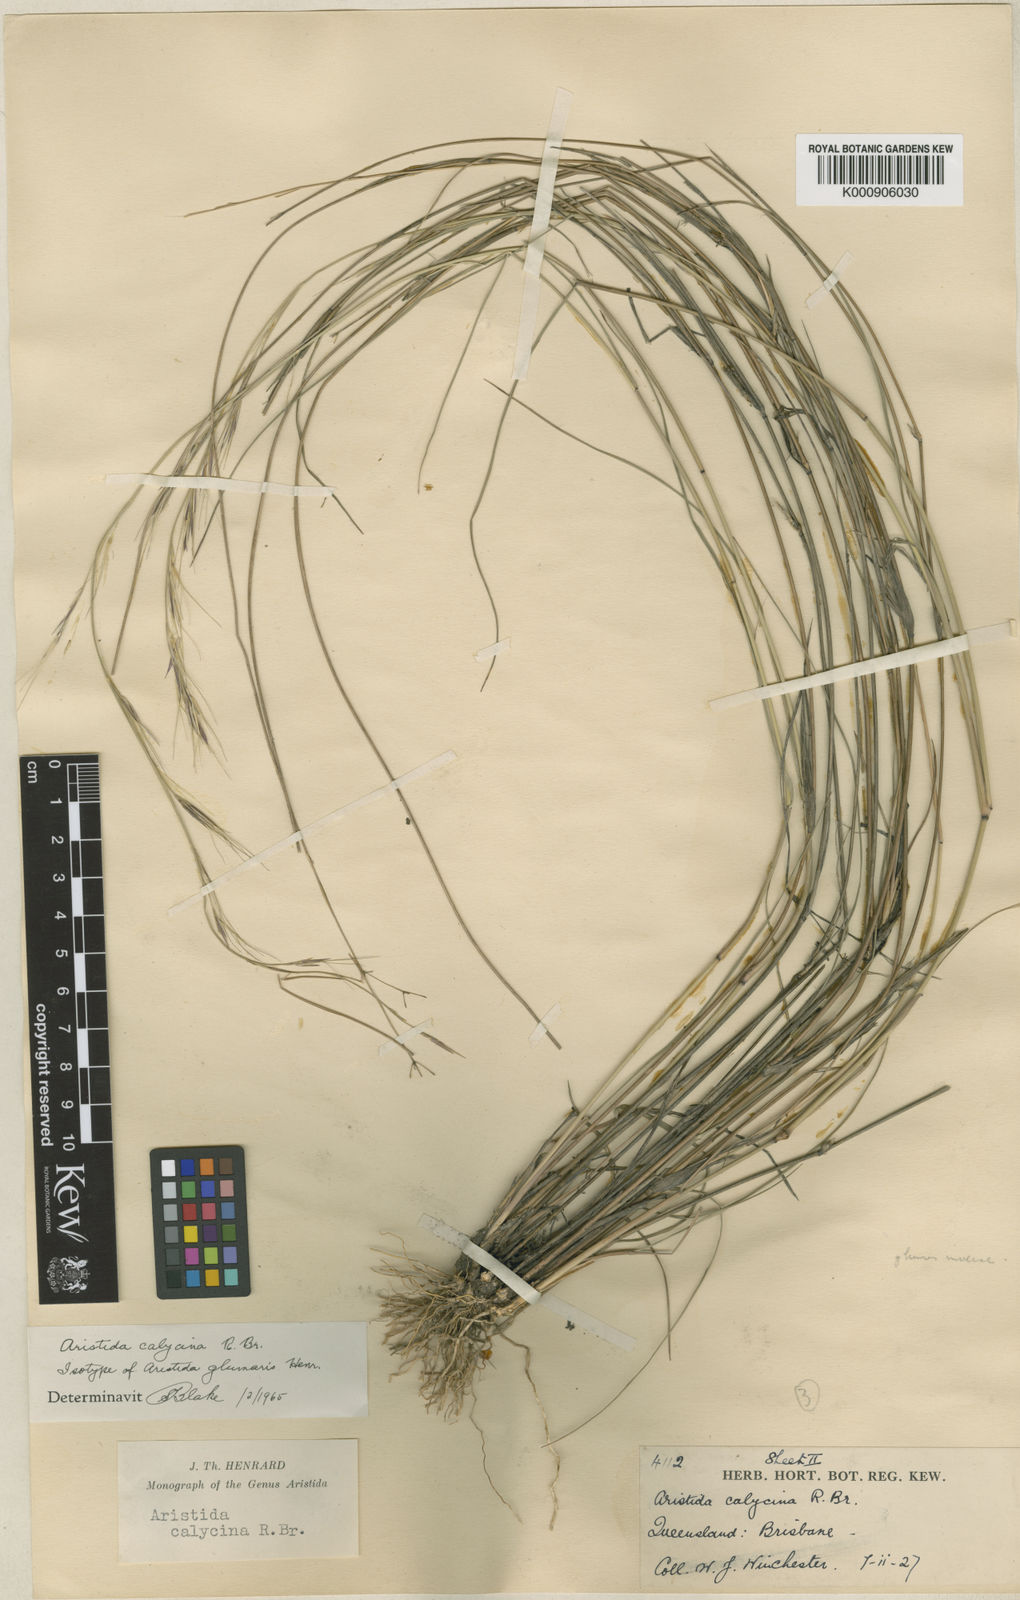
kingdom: Plantae
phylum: Tracheophyta
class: Liliopsida
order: Poales
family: Poaceae
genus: Aristida
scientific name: Aristida calycina
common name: Dark wire grass
